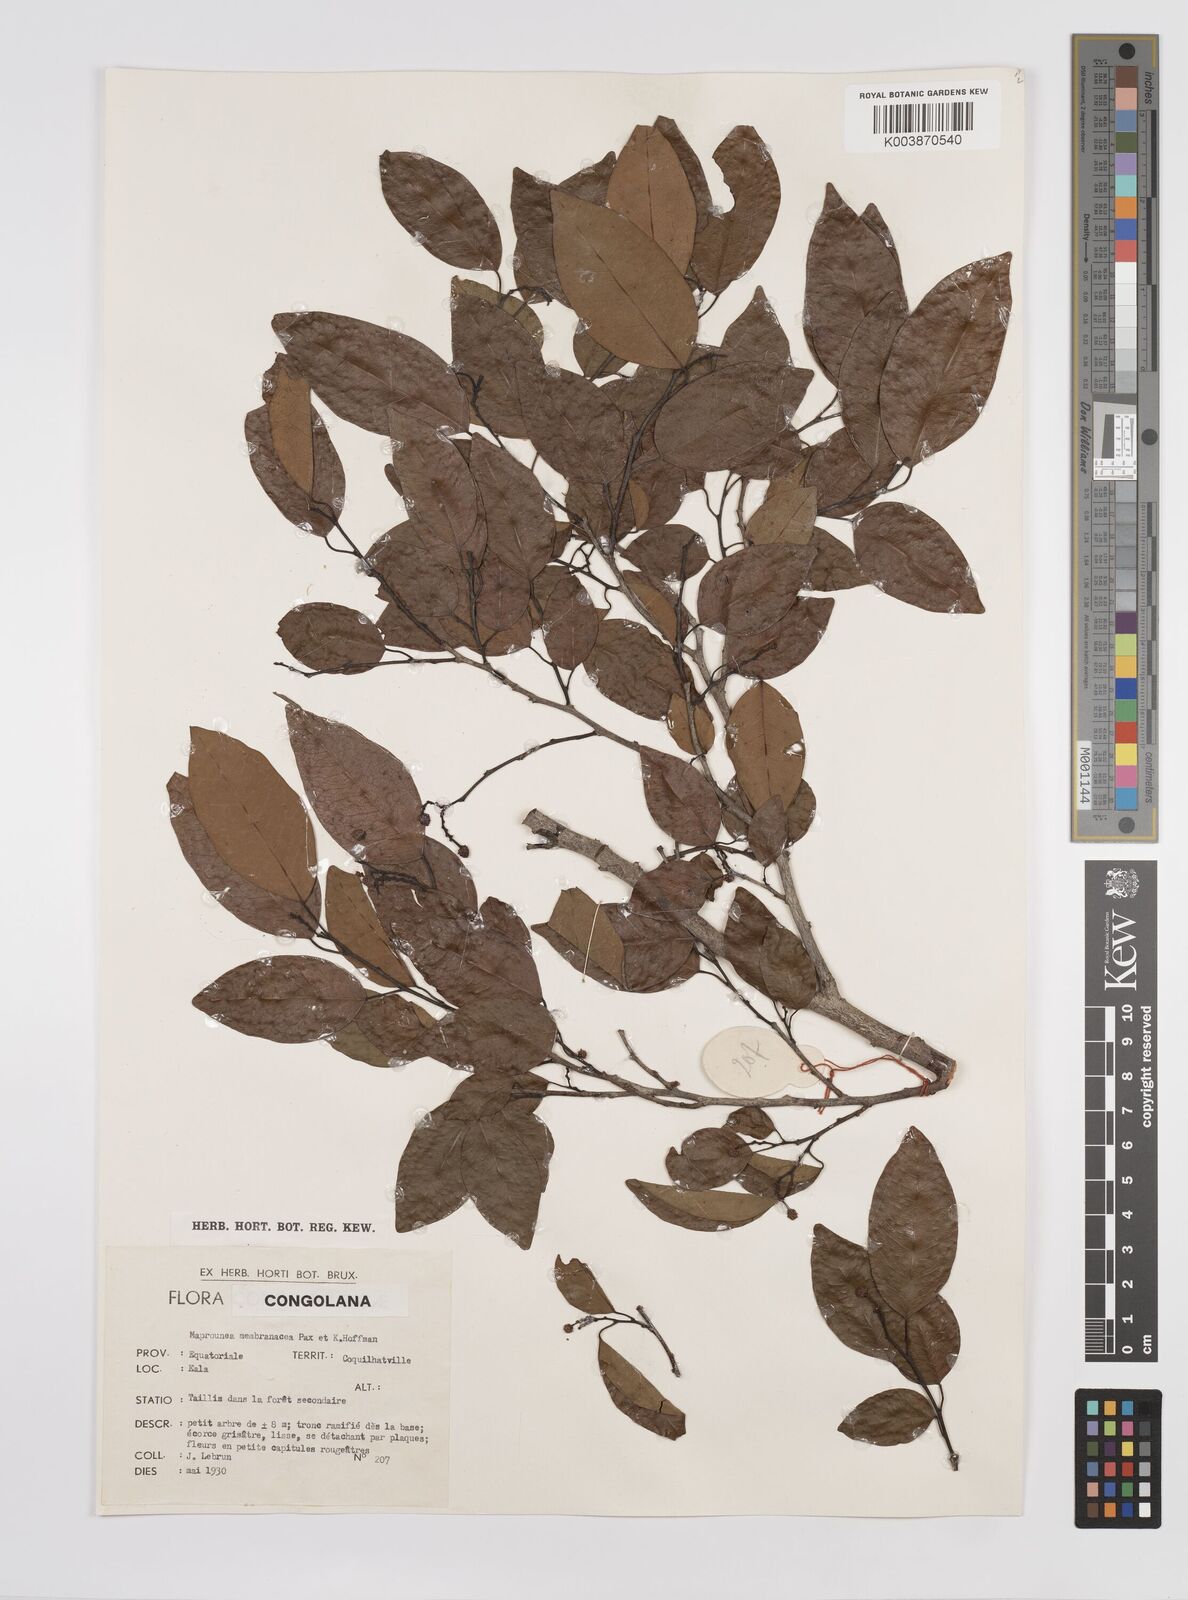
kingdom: Plantae
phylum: Tracheophyta
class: Magnoliopsida
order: Malpighiales
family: Euphorbiaceae
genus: Maprounea
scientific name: Maprounea membranacea
